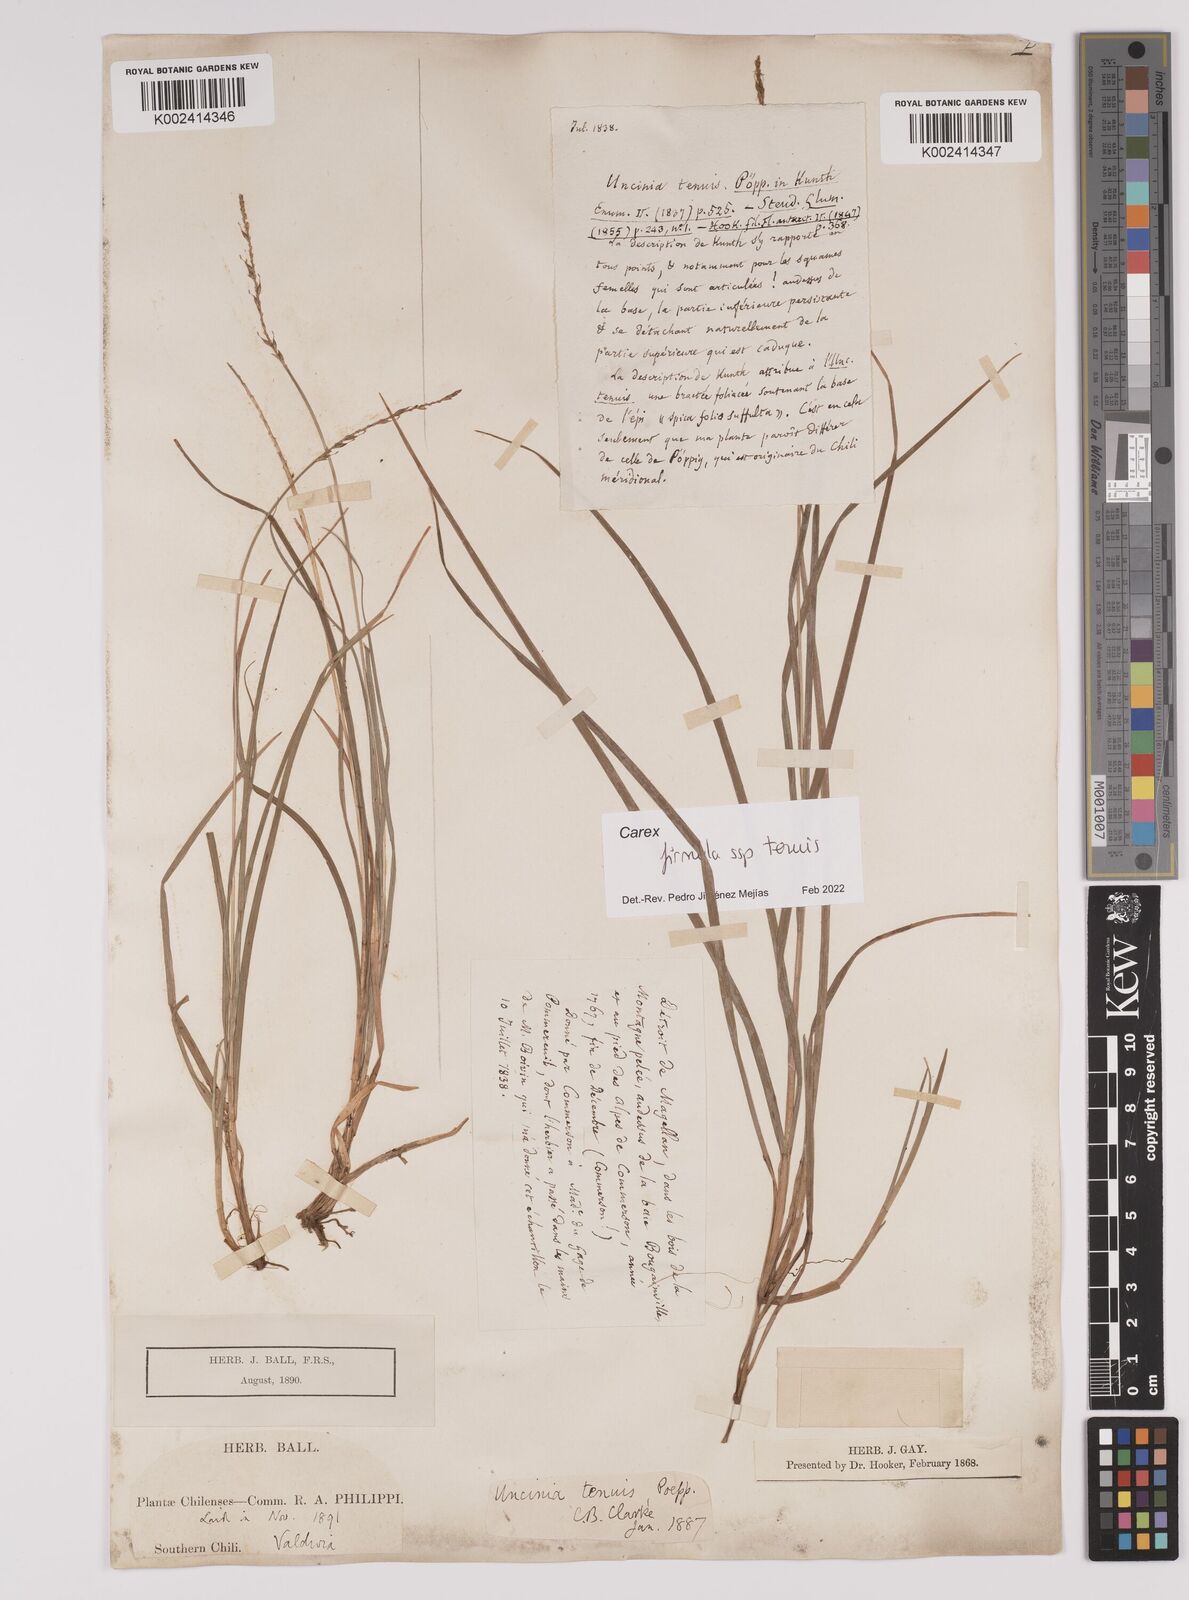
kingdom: Plantae
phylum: Tracheophyta
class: Liliopsida
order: Poales
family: Cyperaceae
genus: Carex
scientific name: Carex firmula
